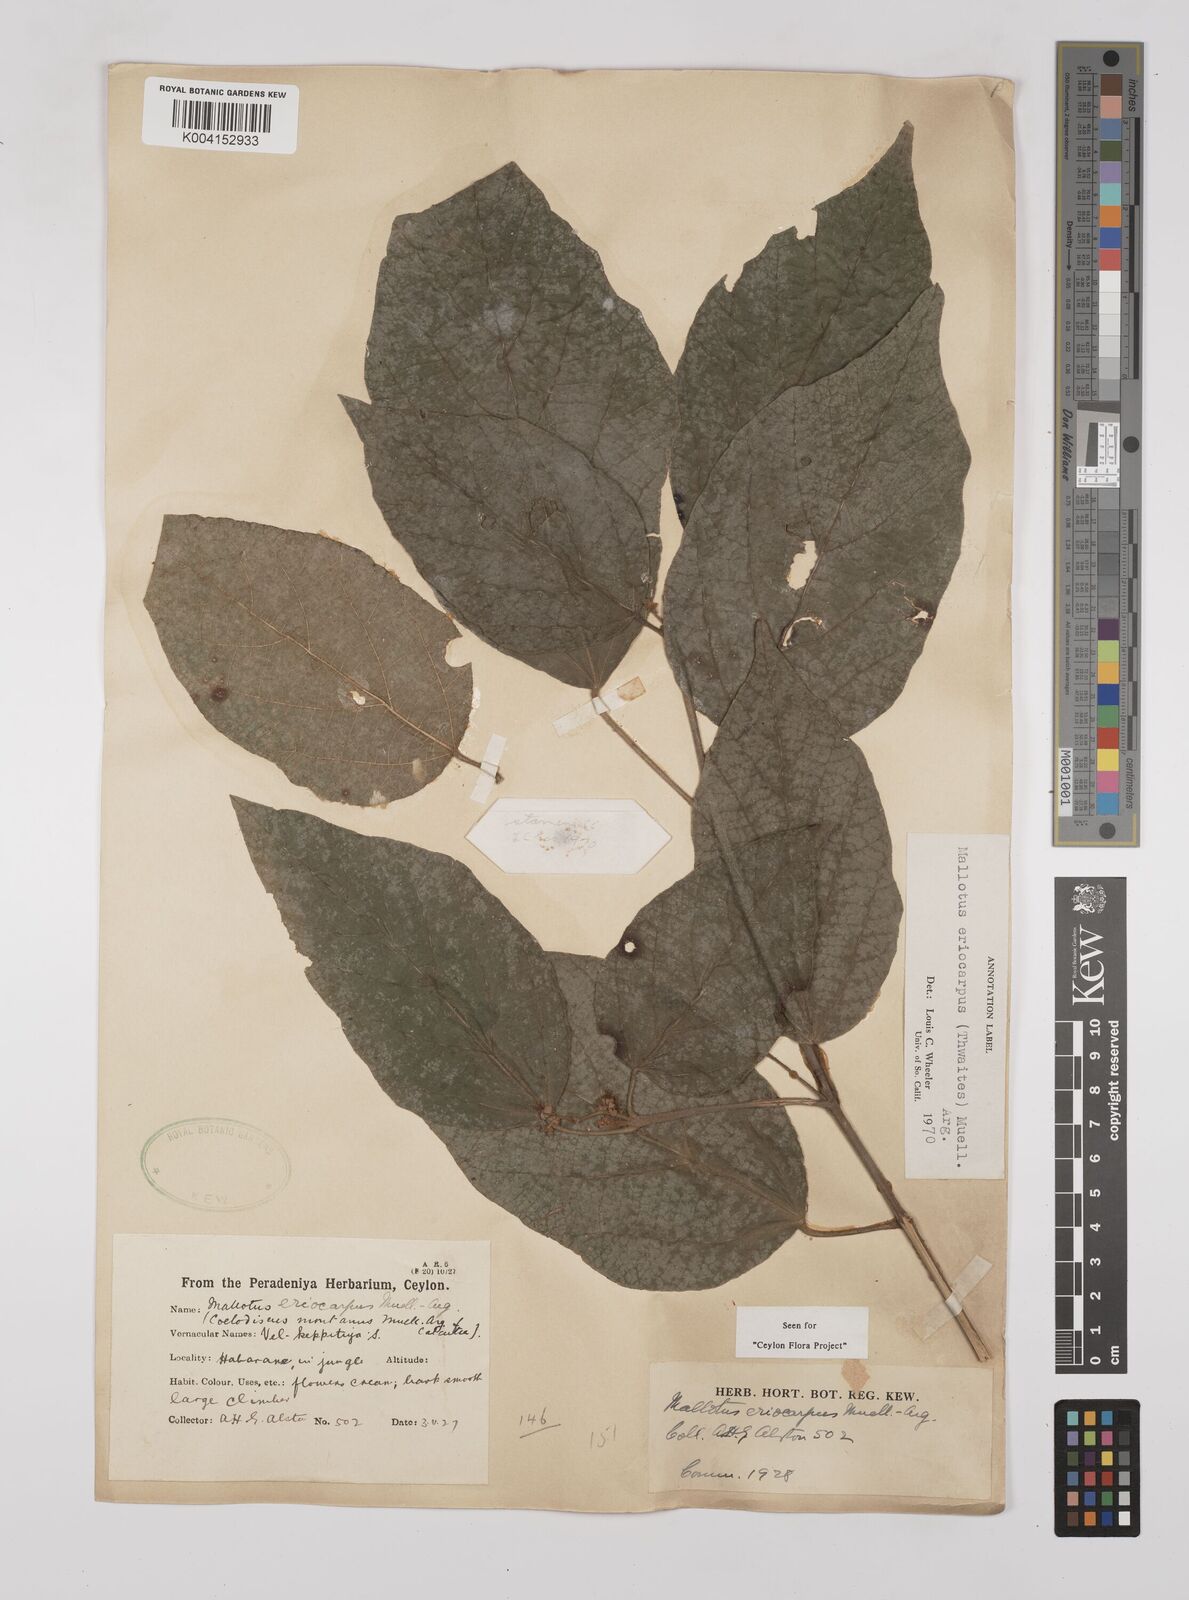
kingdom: Plantae
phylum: Tracheophyta
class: Magnoliopsida
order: Malpighiales
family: Euphorbiaceae
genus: Mallotus
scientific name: Mallotus eriocarpus
